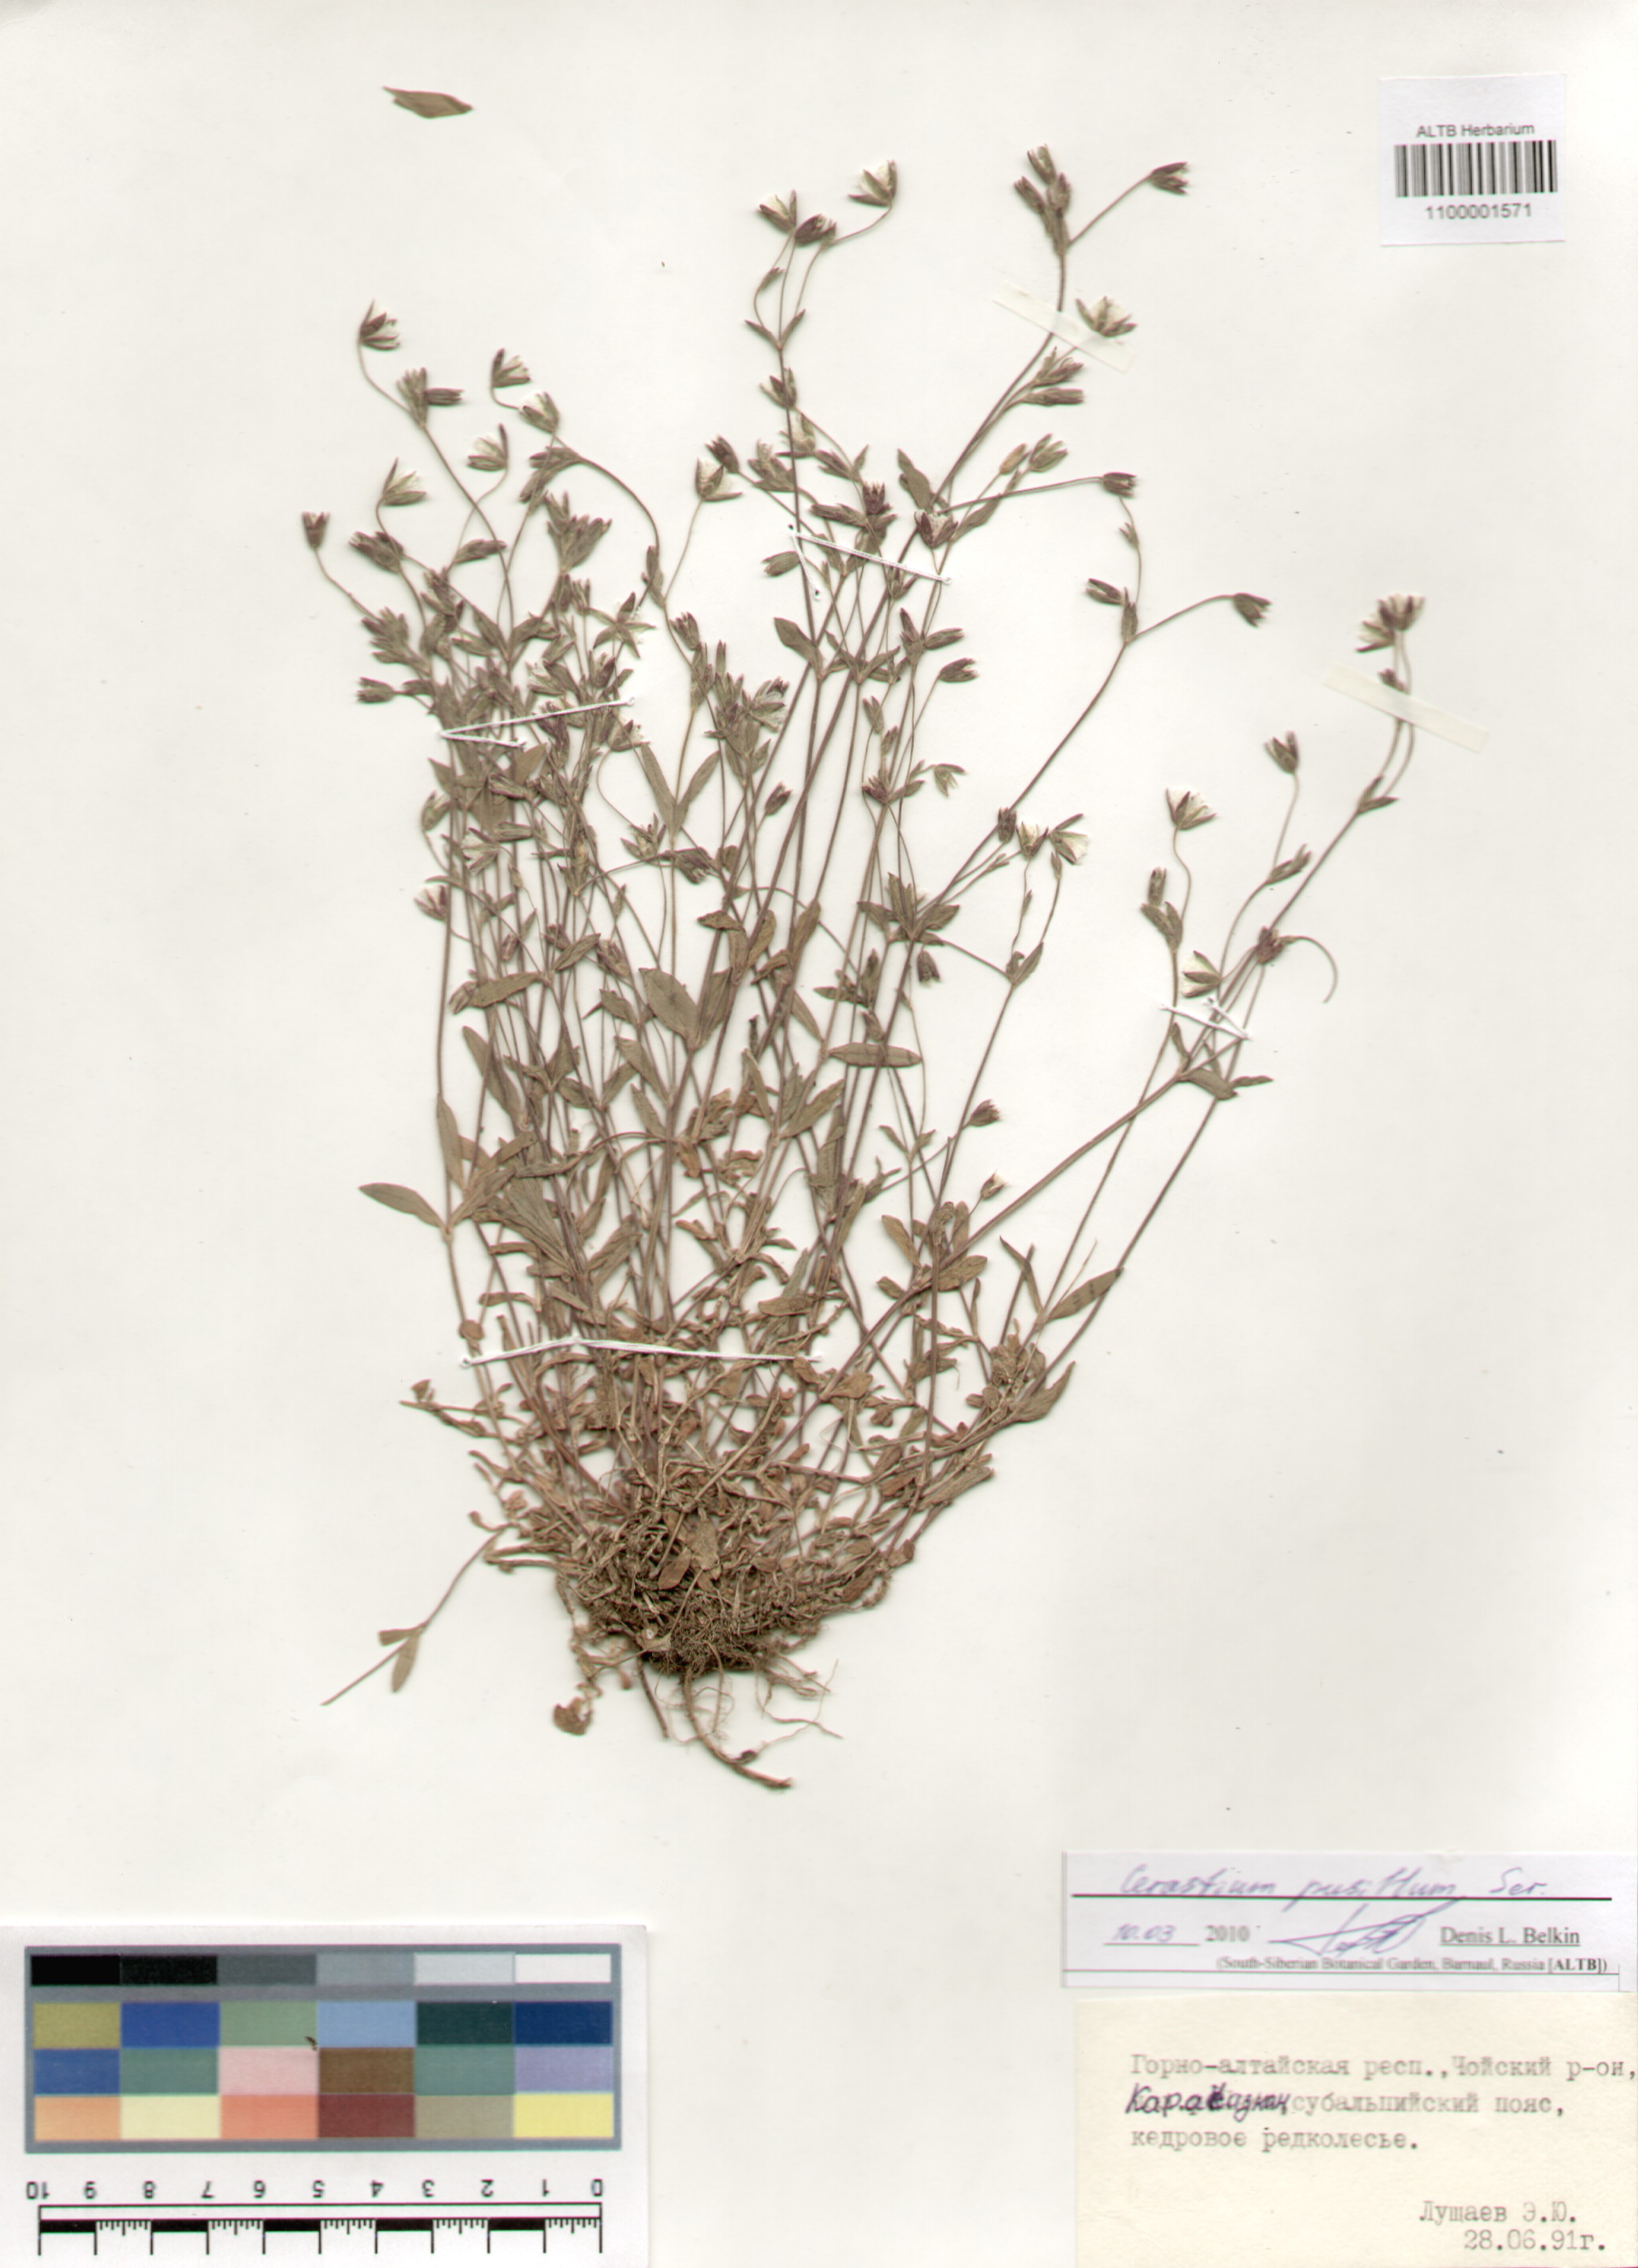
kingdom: Plantae
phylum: Tracheophyta
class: Magnoliopsida
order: Caryophyllales
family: Caryophyllaceae
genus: Cerastium
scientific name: Cerastium pusillum
